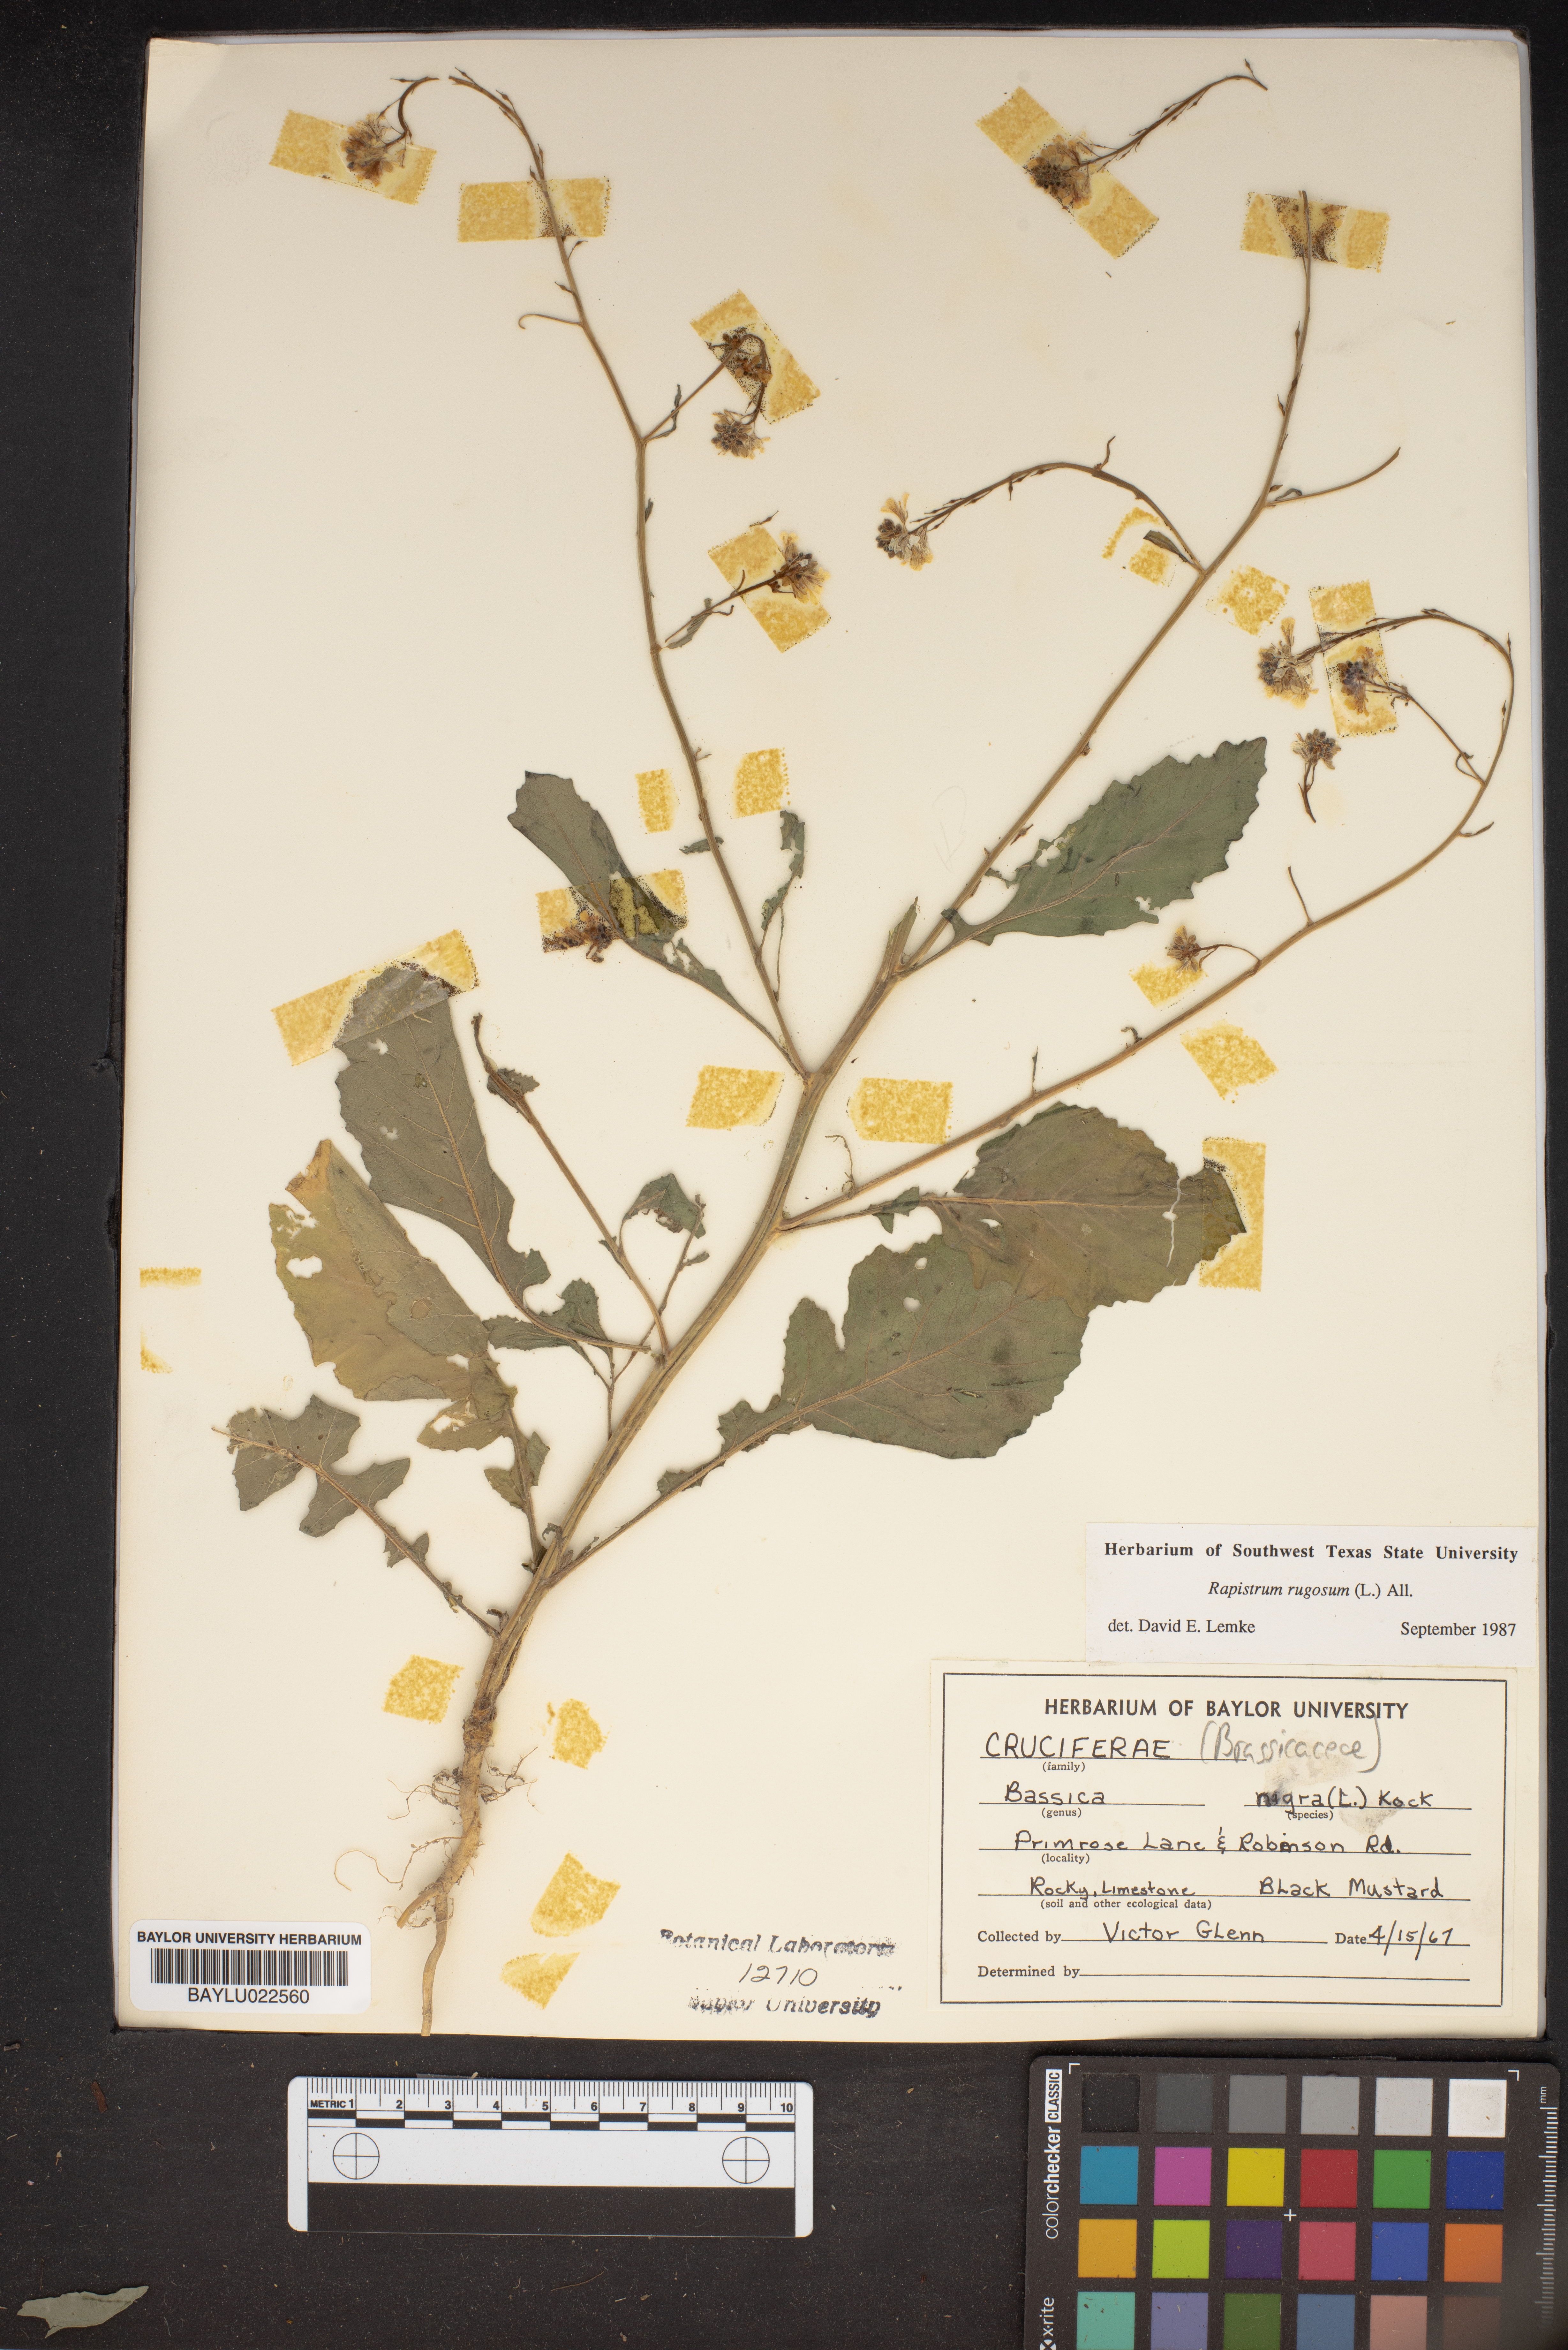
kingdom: Plantae
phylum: Tracheophyta
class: Magnoliopsida
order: Brassicales
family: Brassicaceae
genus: Rapistrum
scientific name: Rapistrum rugosum
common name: Annual bastardcabbage
